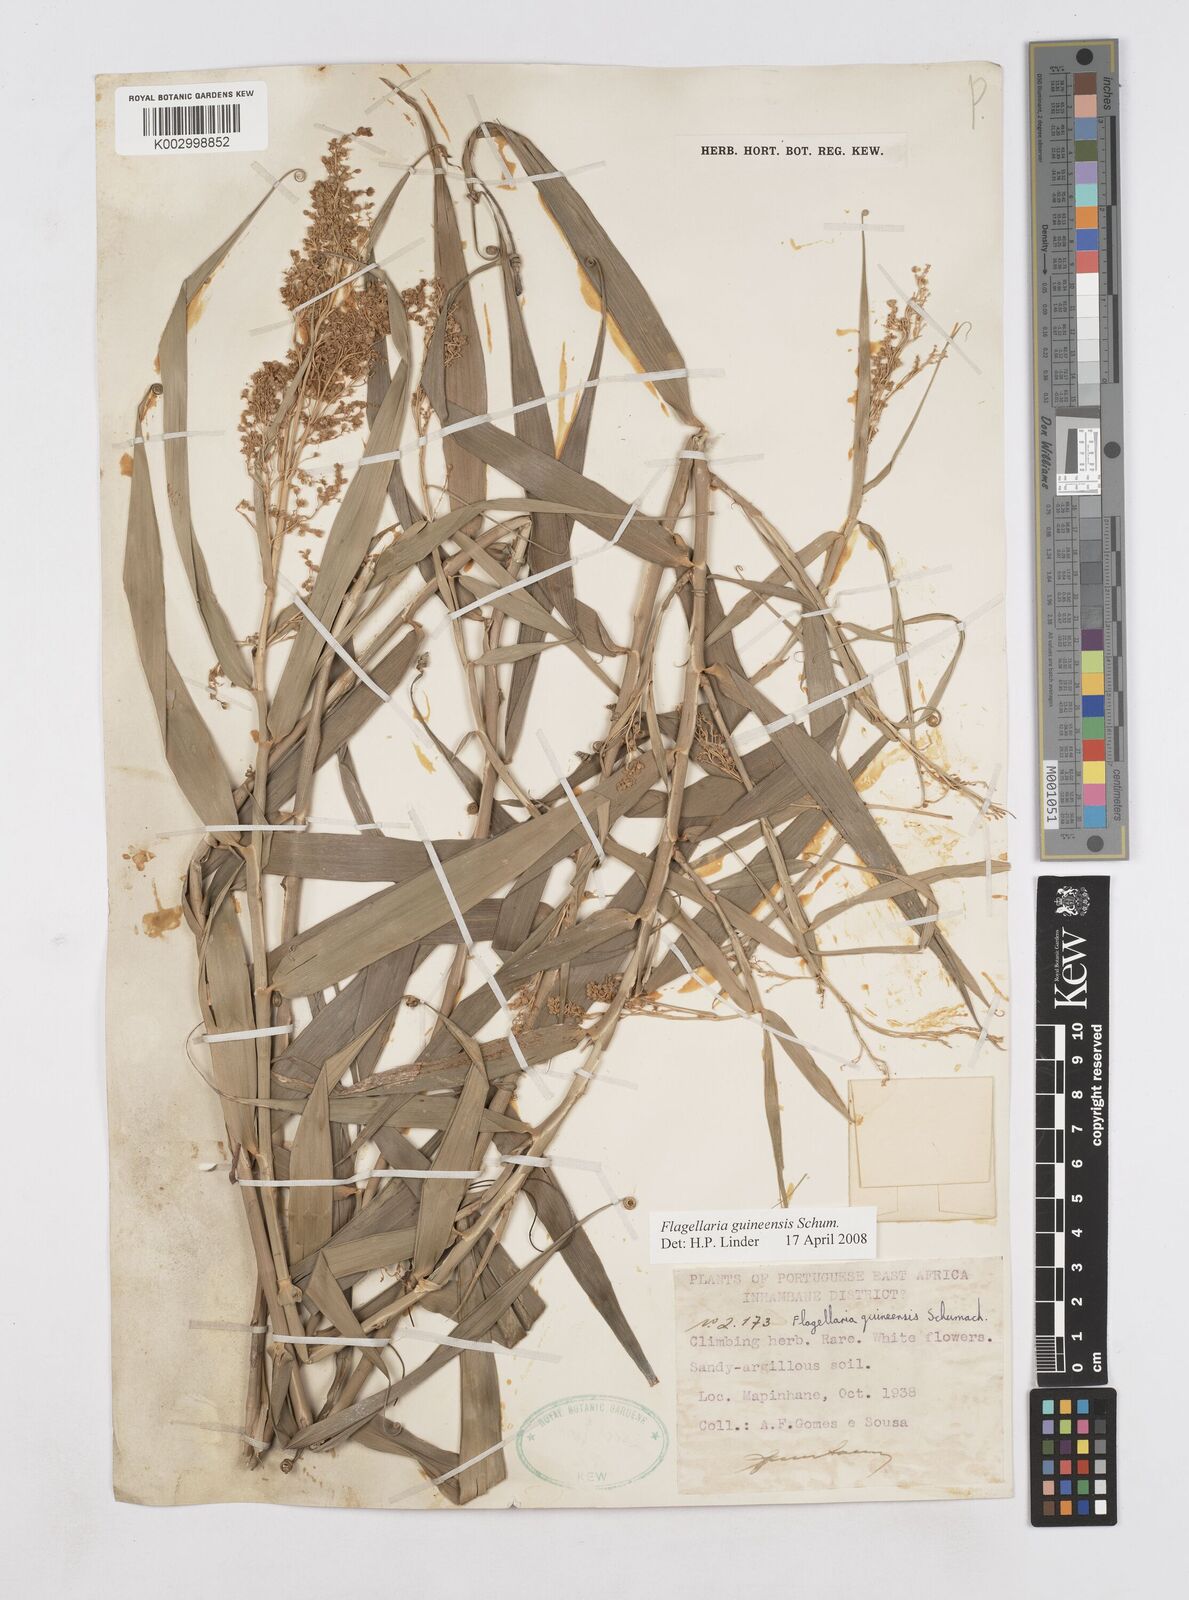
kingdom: Plantae
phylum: Tracheophyta
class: Liliopsida
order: Poales
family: Flagellariaceae
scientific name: Flagellariaceae
